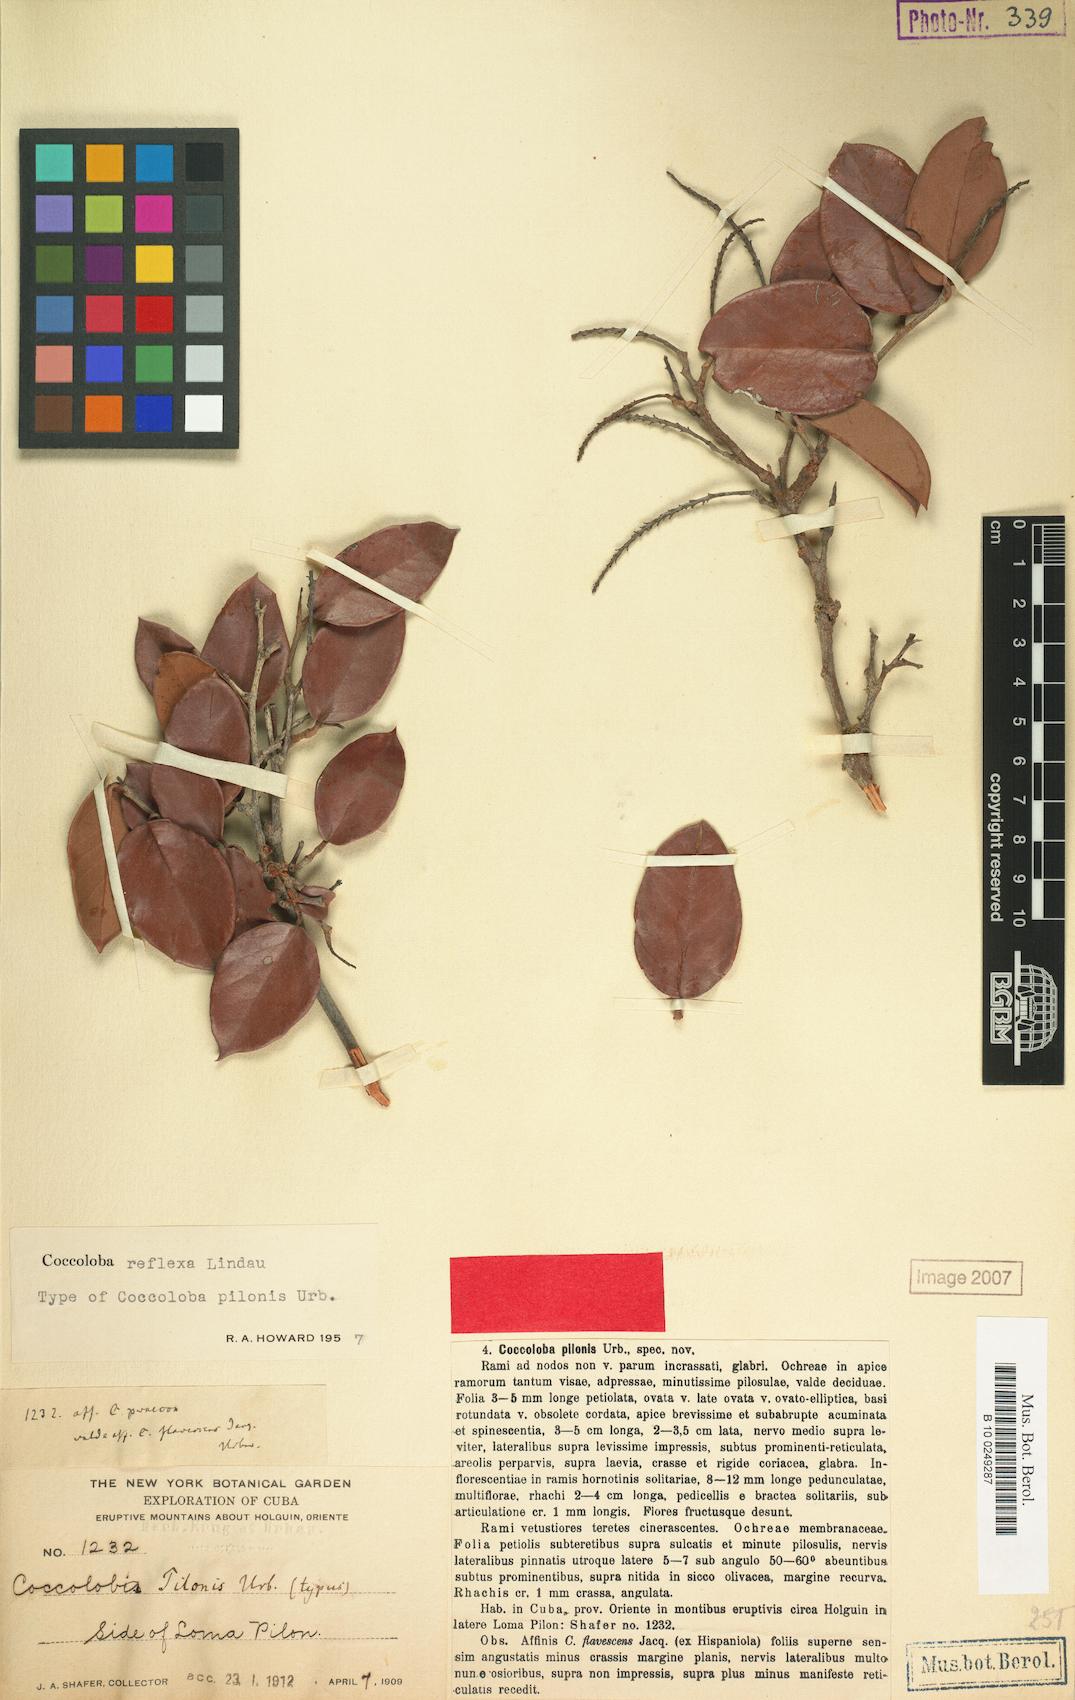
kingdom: Plantae
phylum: Tracheophyta
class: Magnoliopsida
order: Caryophyllales
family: Polygonaceae
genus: Coccoloba
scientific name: Coccoloba reflexa
